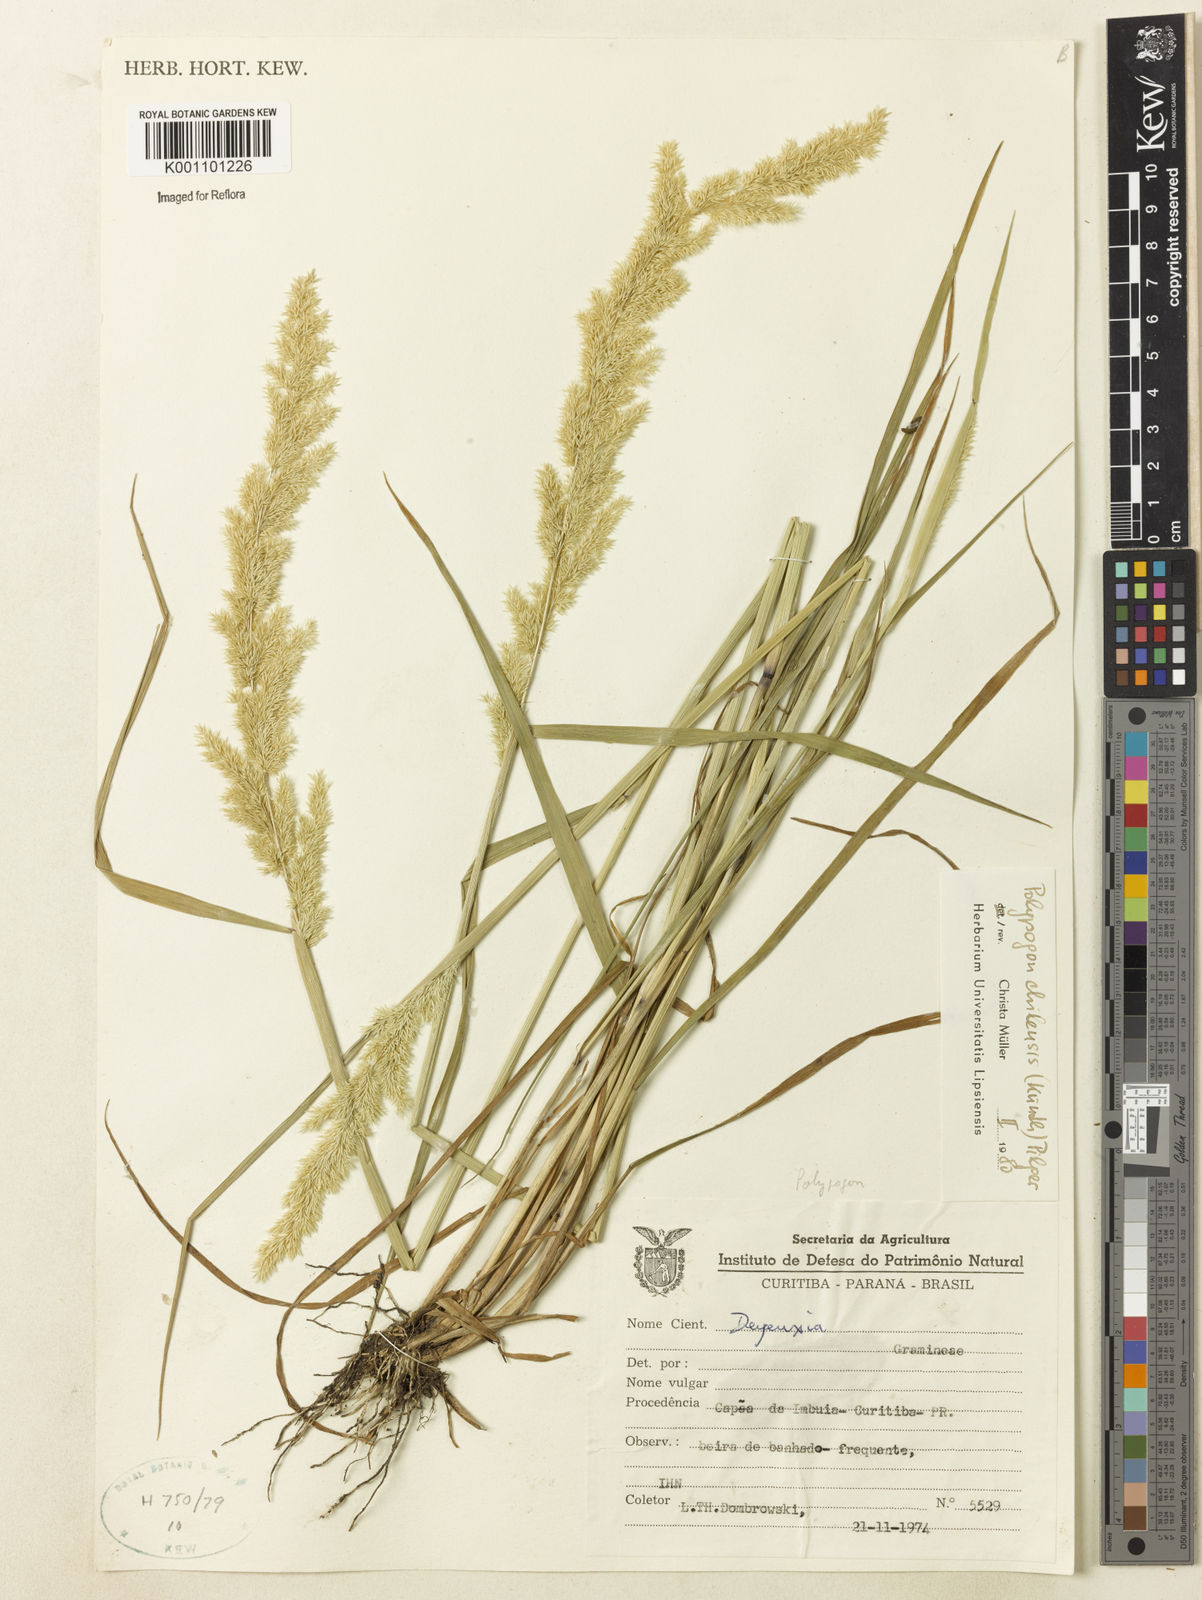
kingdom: Plantae
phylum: Tracheophyta
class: Liliopsida
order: Poales
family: Poaceae
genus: Polypogon
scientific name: Polypogon chilensis
